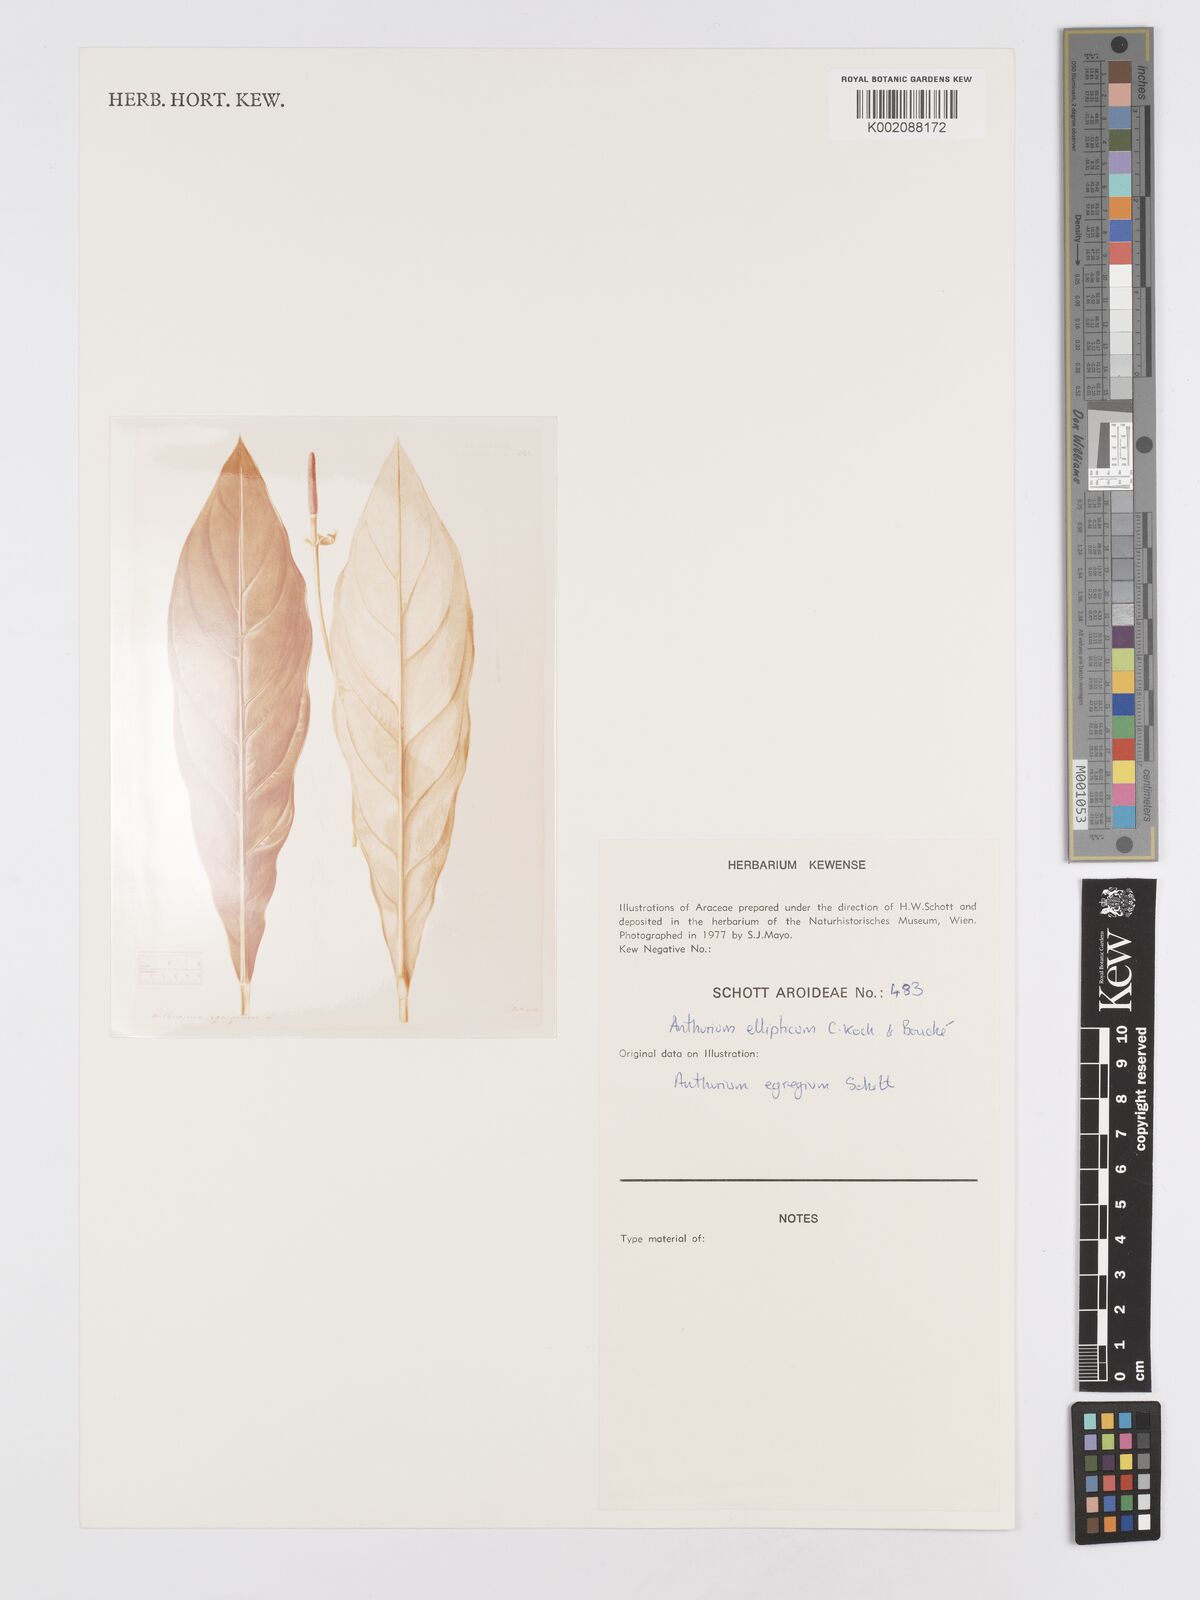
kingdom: Plantae
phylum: Tracheophyta
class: Liliopsida
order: Alismatales
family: Araceae
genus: Anthurium
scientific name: Anthurium crassinervium
